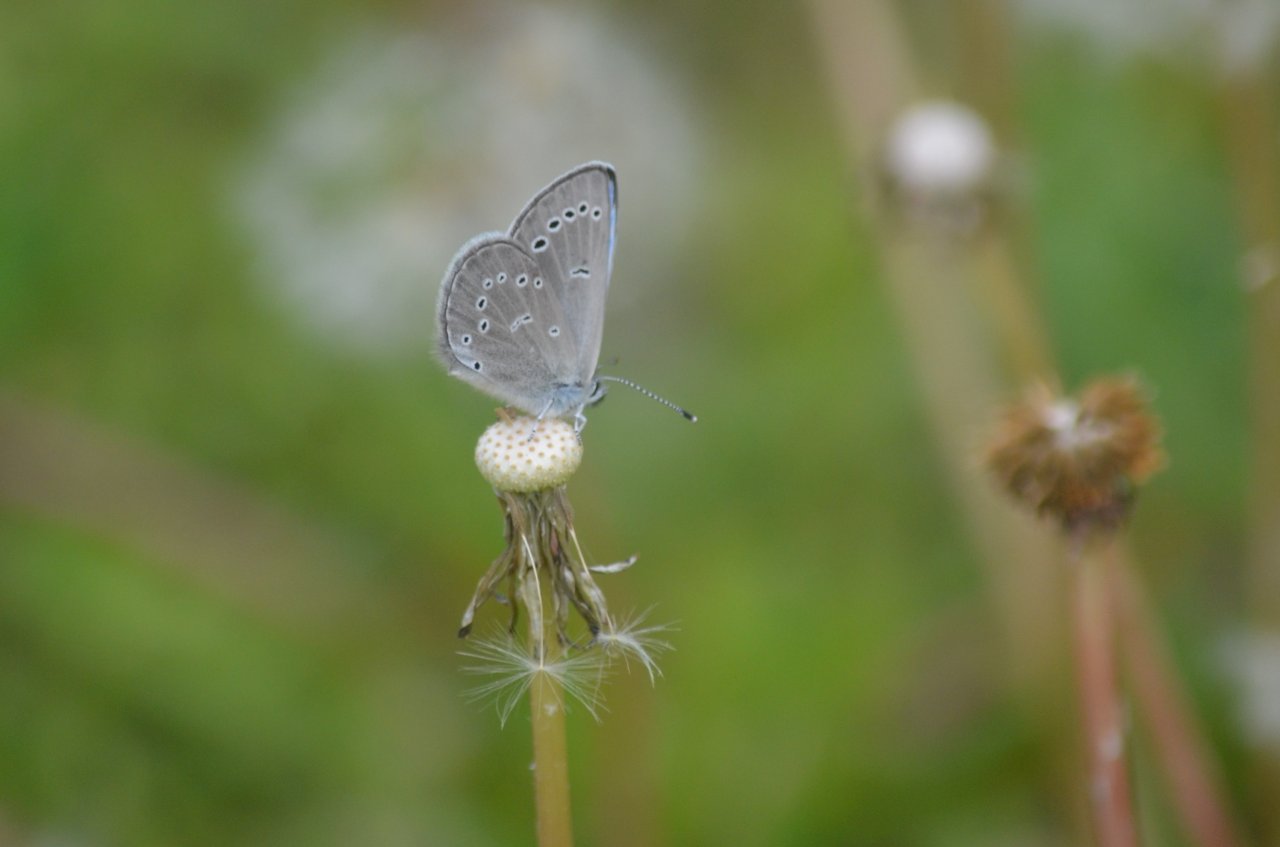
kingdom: Animalia
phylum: Arthropoda
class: Insecta
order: Lepidoptera
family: Lycaenidae
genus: Glaucopsyche
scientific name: Glaucopsyche lygdamus
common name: Silvery Blue
